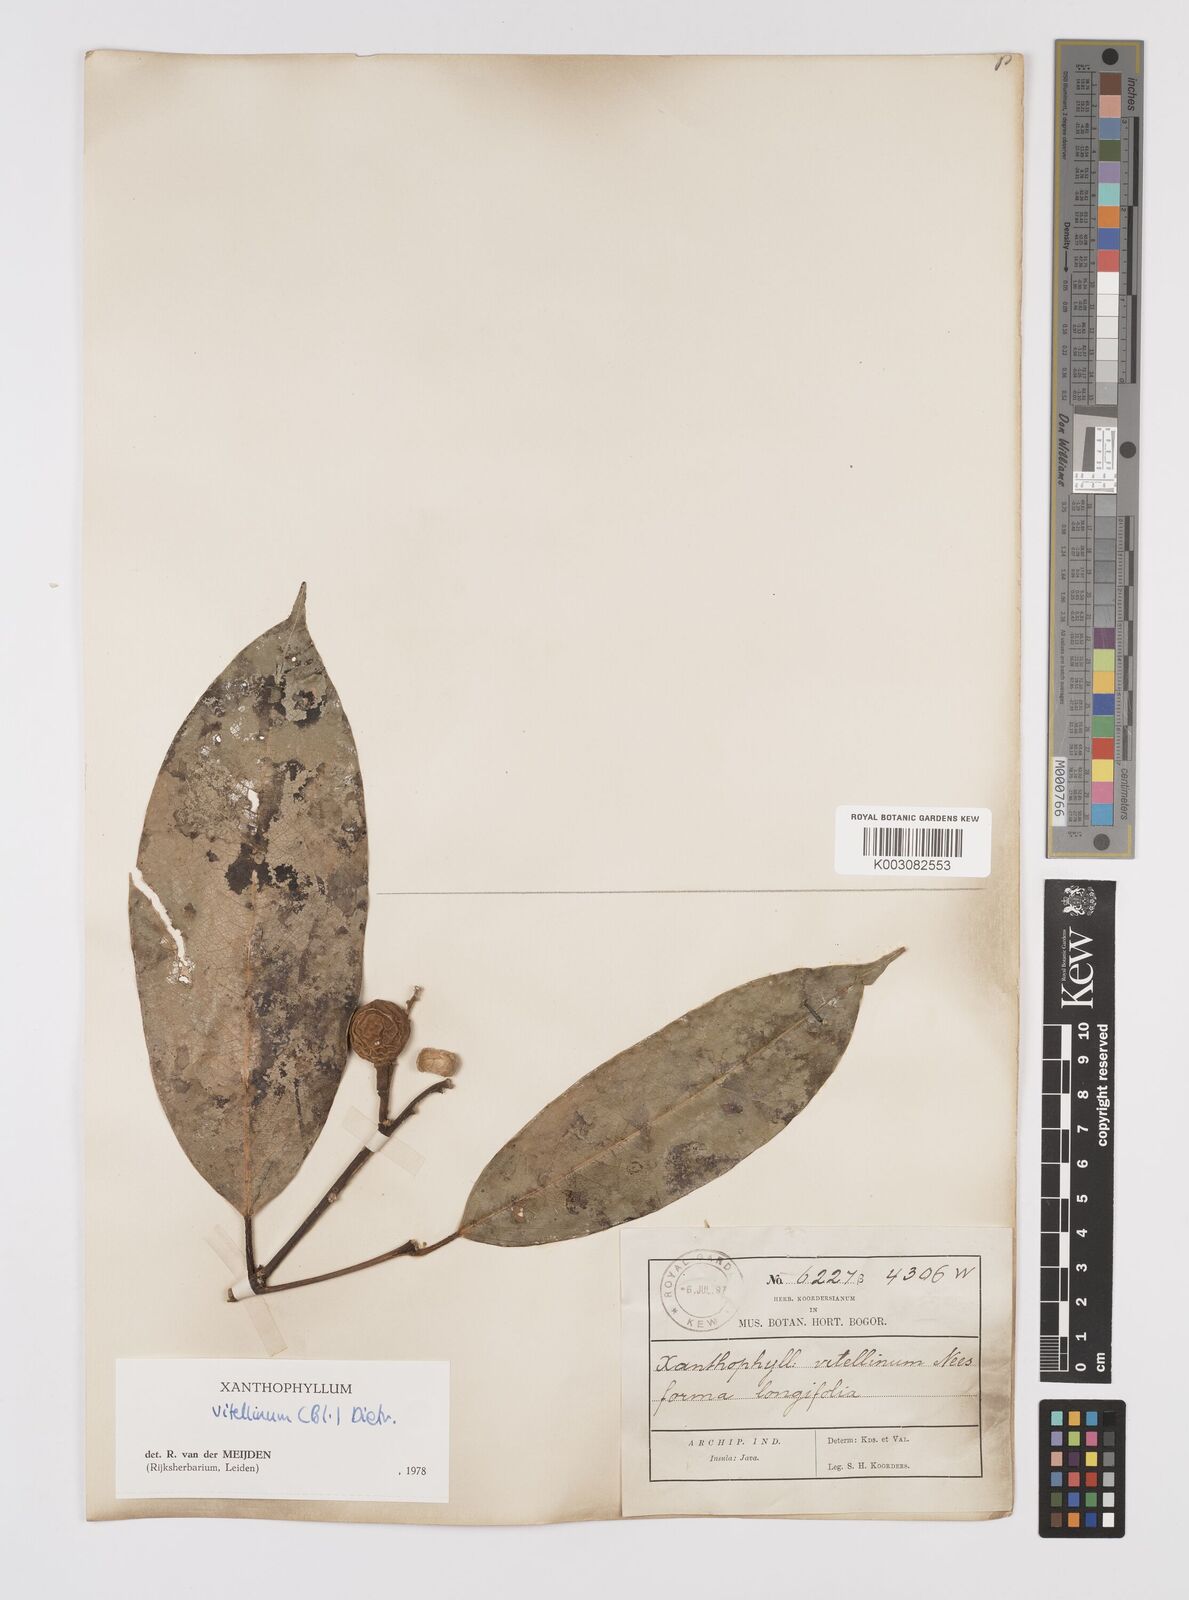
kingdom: Plantae
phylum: Tracheophyta
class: Magnoliopsida
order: Fabales
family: Polygalaceae
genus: Xanthophyllum
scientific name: Xanthophyllum vitellinum
